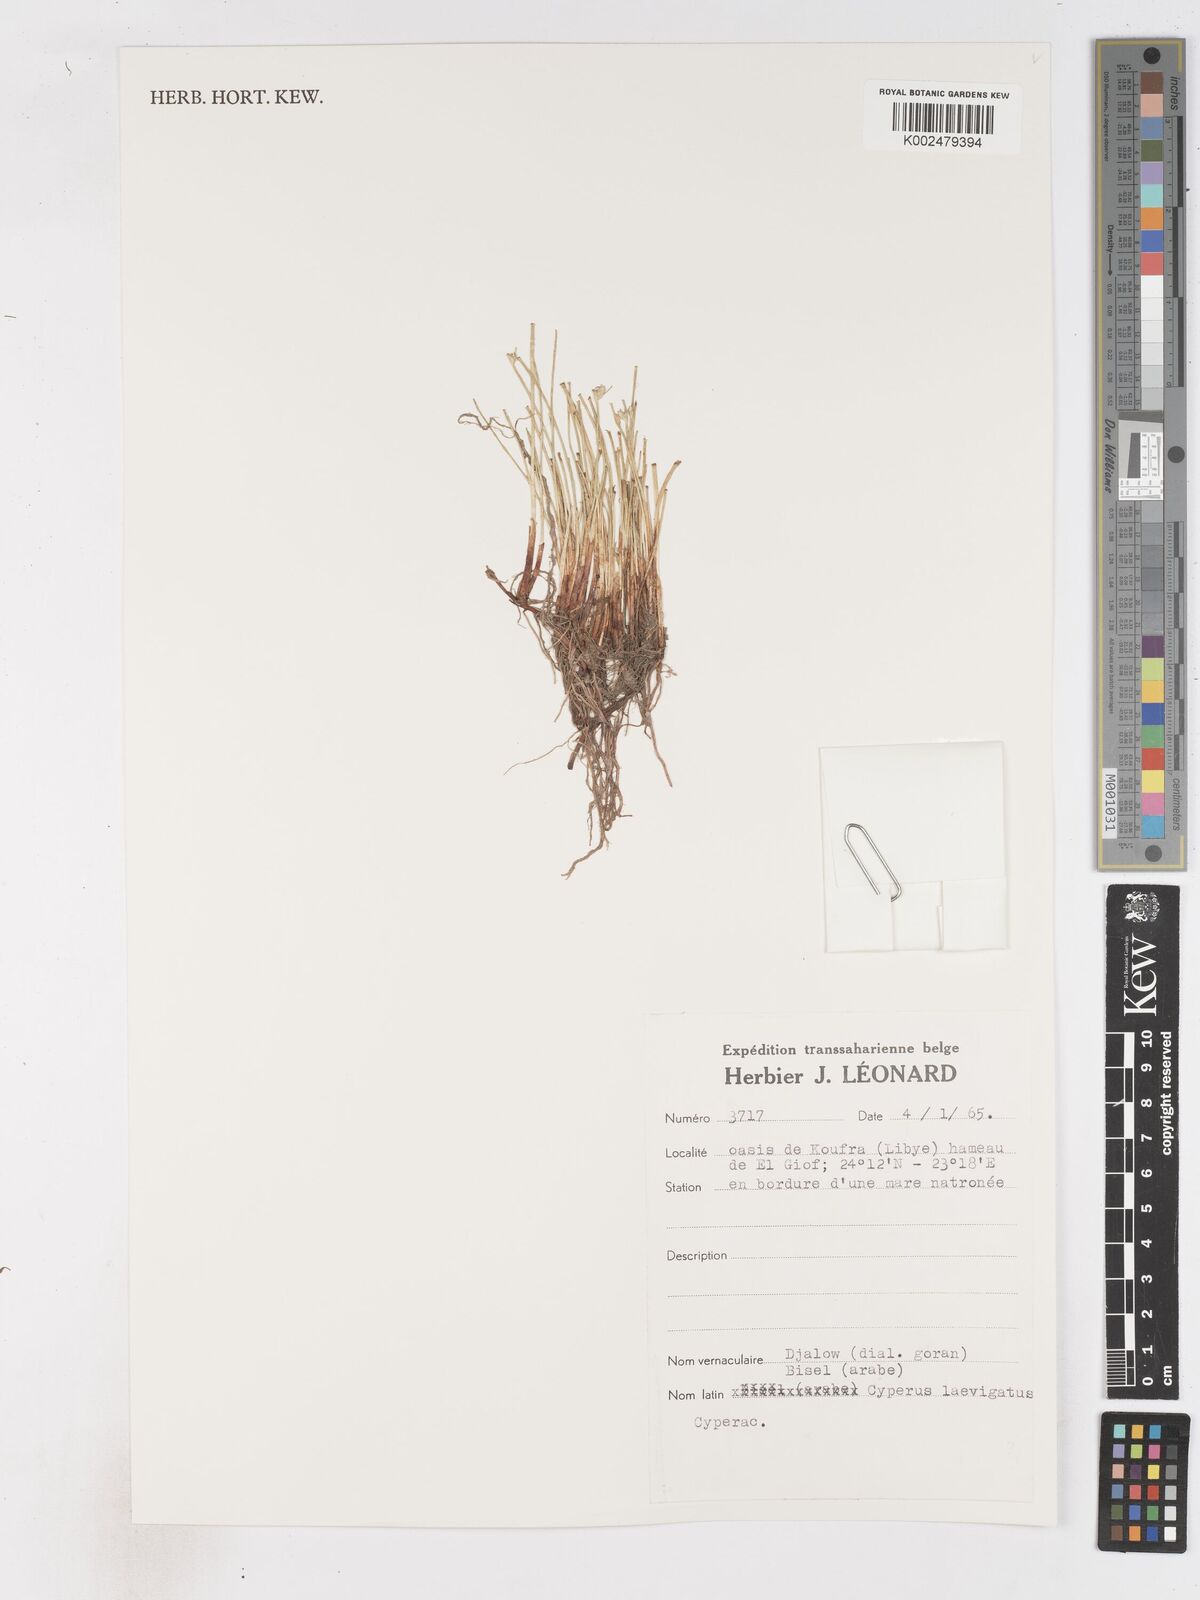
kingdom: Plantae
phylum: Tracheophyta
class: Liliopsida
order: Poales
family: Cyperaceae
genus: Cyperus
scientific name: Cyperus laevigatus
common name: Smooth flat sedge
